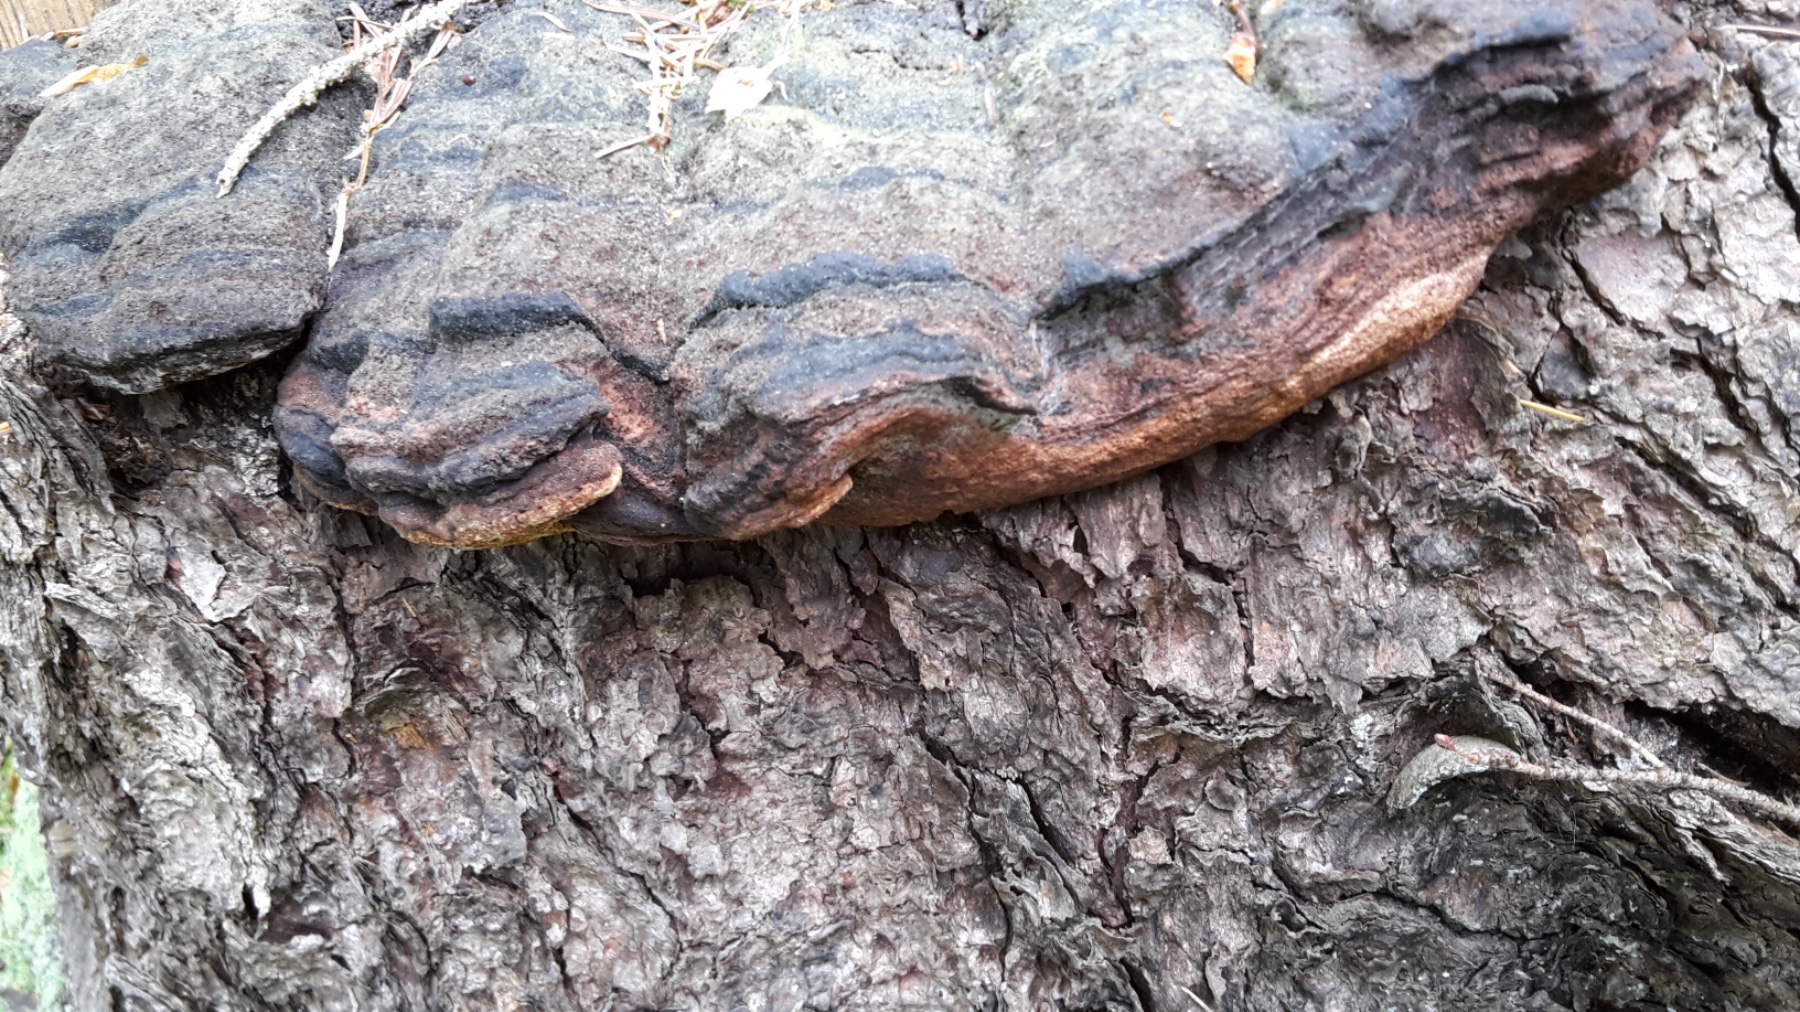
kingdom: Fungi
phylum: Basidiomycota
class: Agaricomycetes
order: Gloeophyllales
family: Gloeophyllaceae
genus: Gloeophyllum
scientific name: Gloeophyllum odoratum
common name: duftende korkhat
